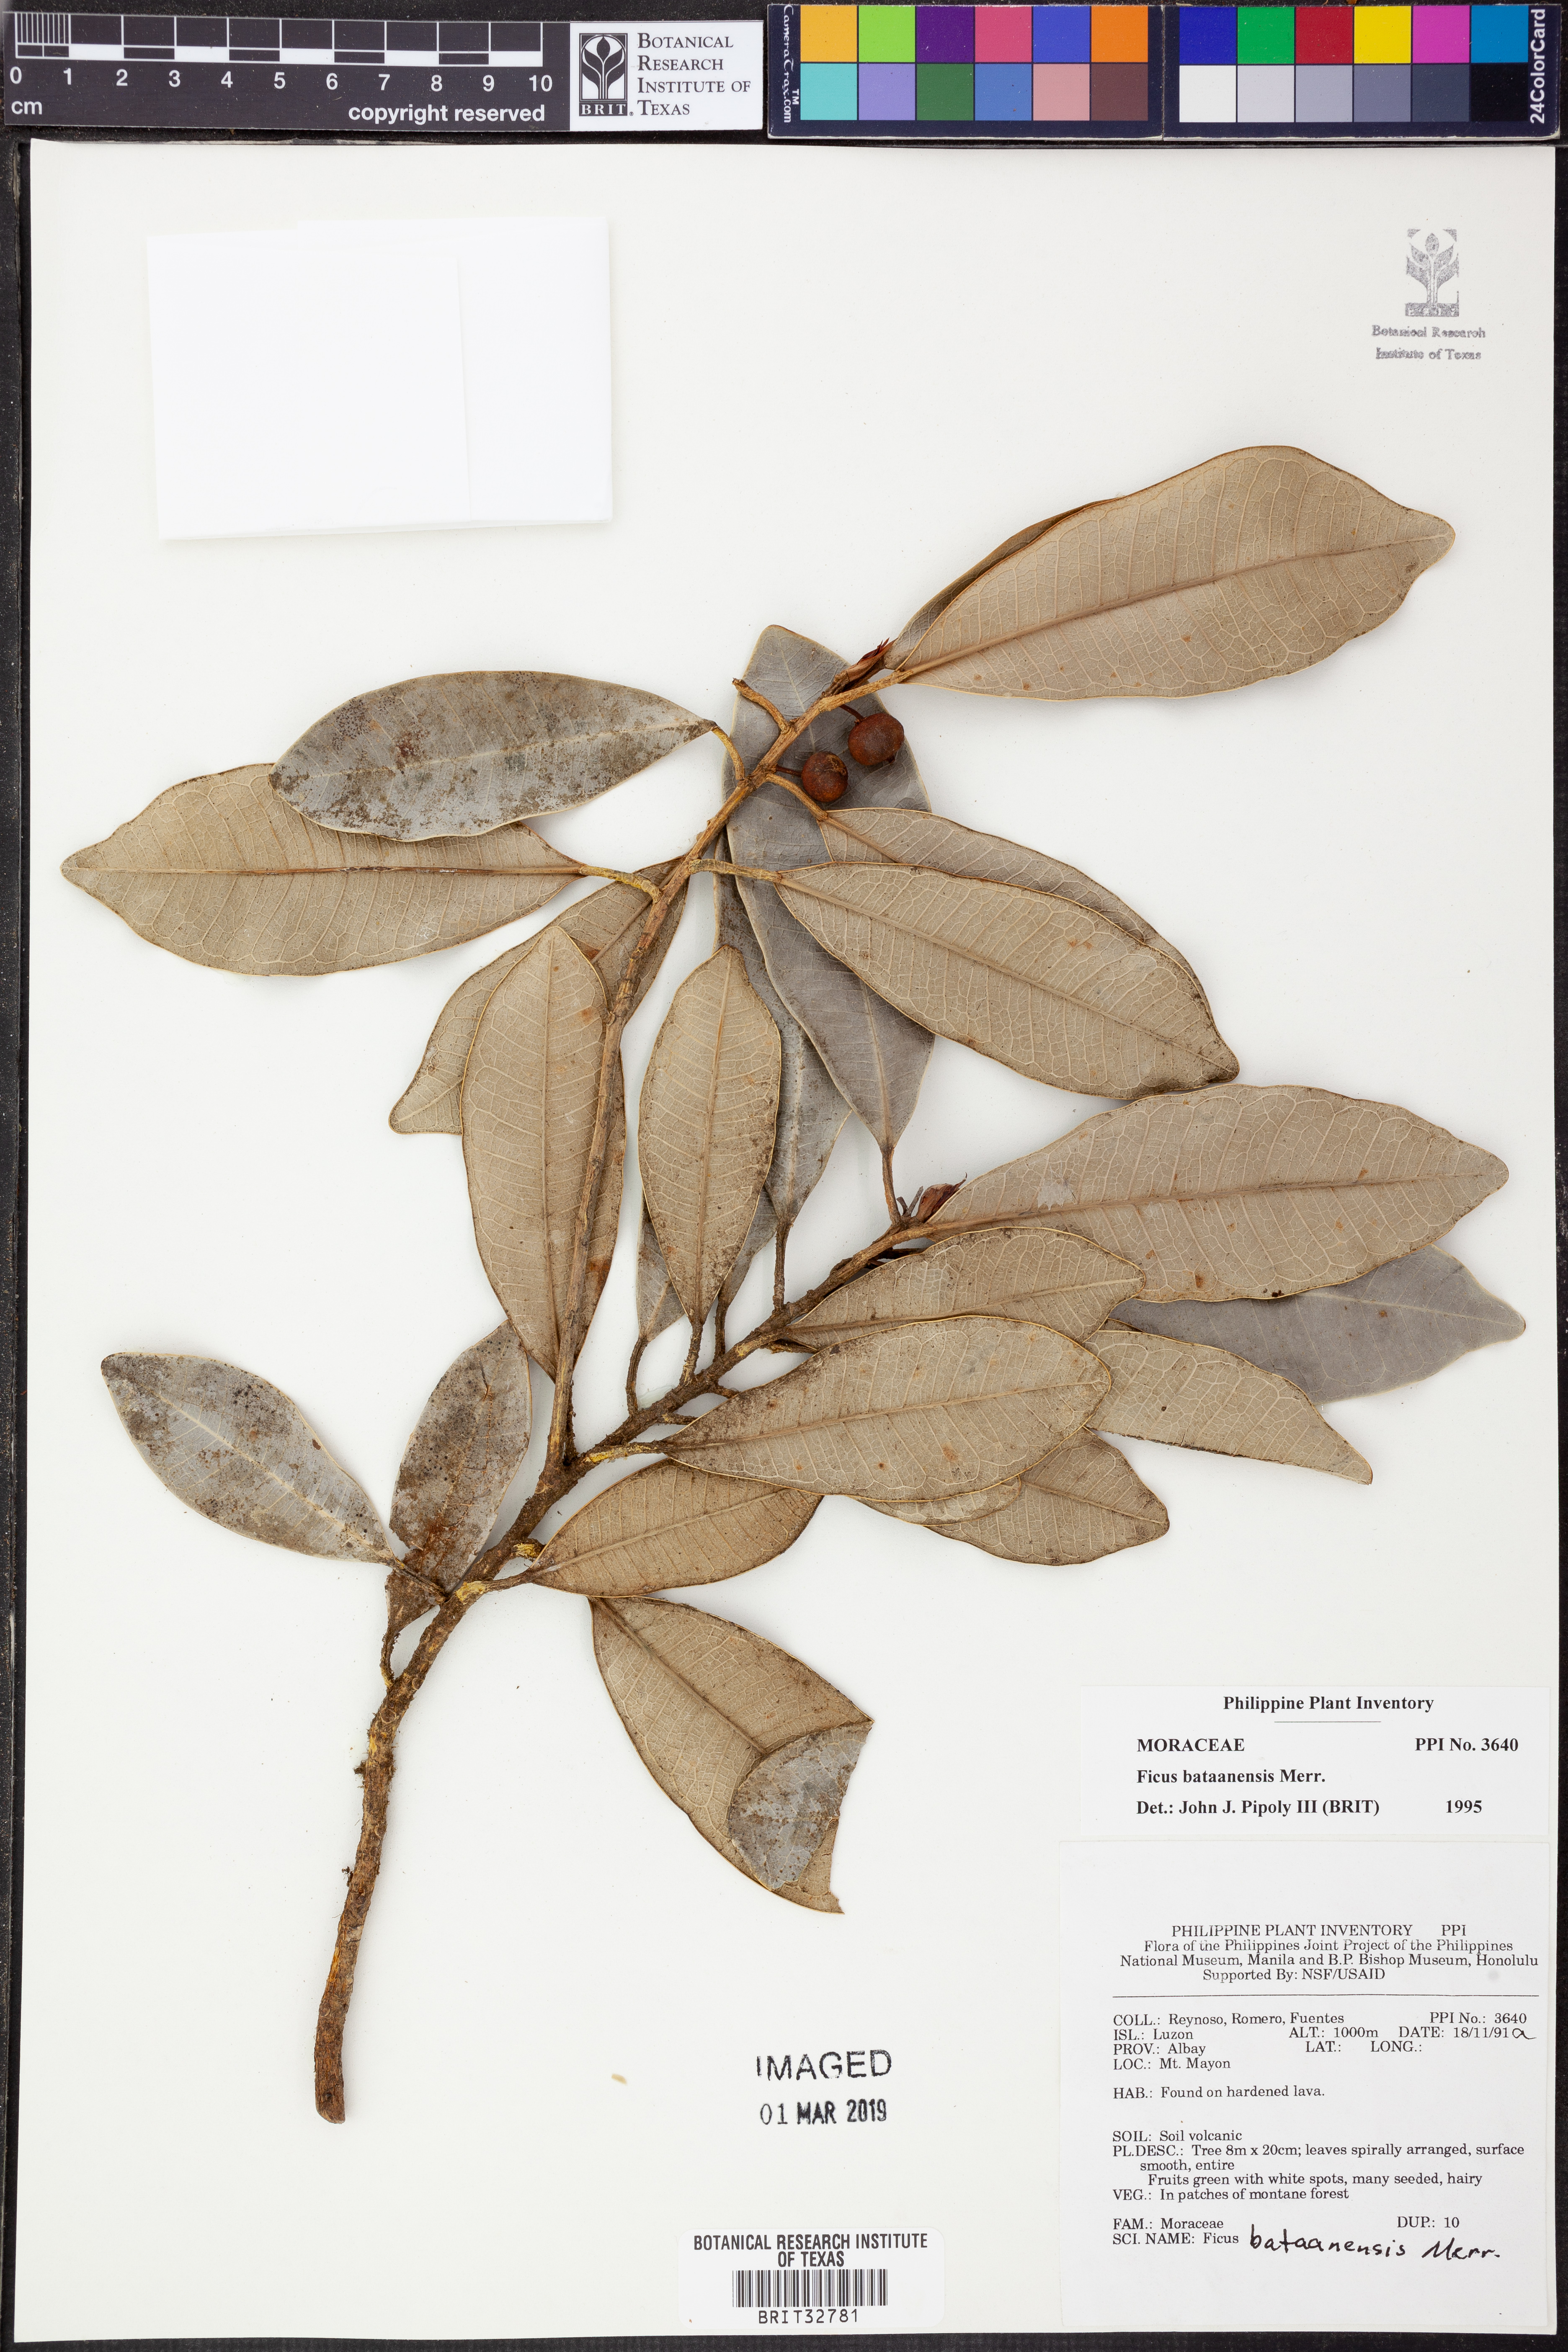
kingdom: Plantae
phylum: Tracheophyta
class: Magnoliopsida
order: Rosales
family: Moraceae
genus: Ficus
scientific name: Ficus bataanensis
